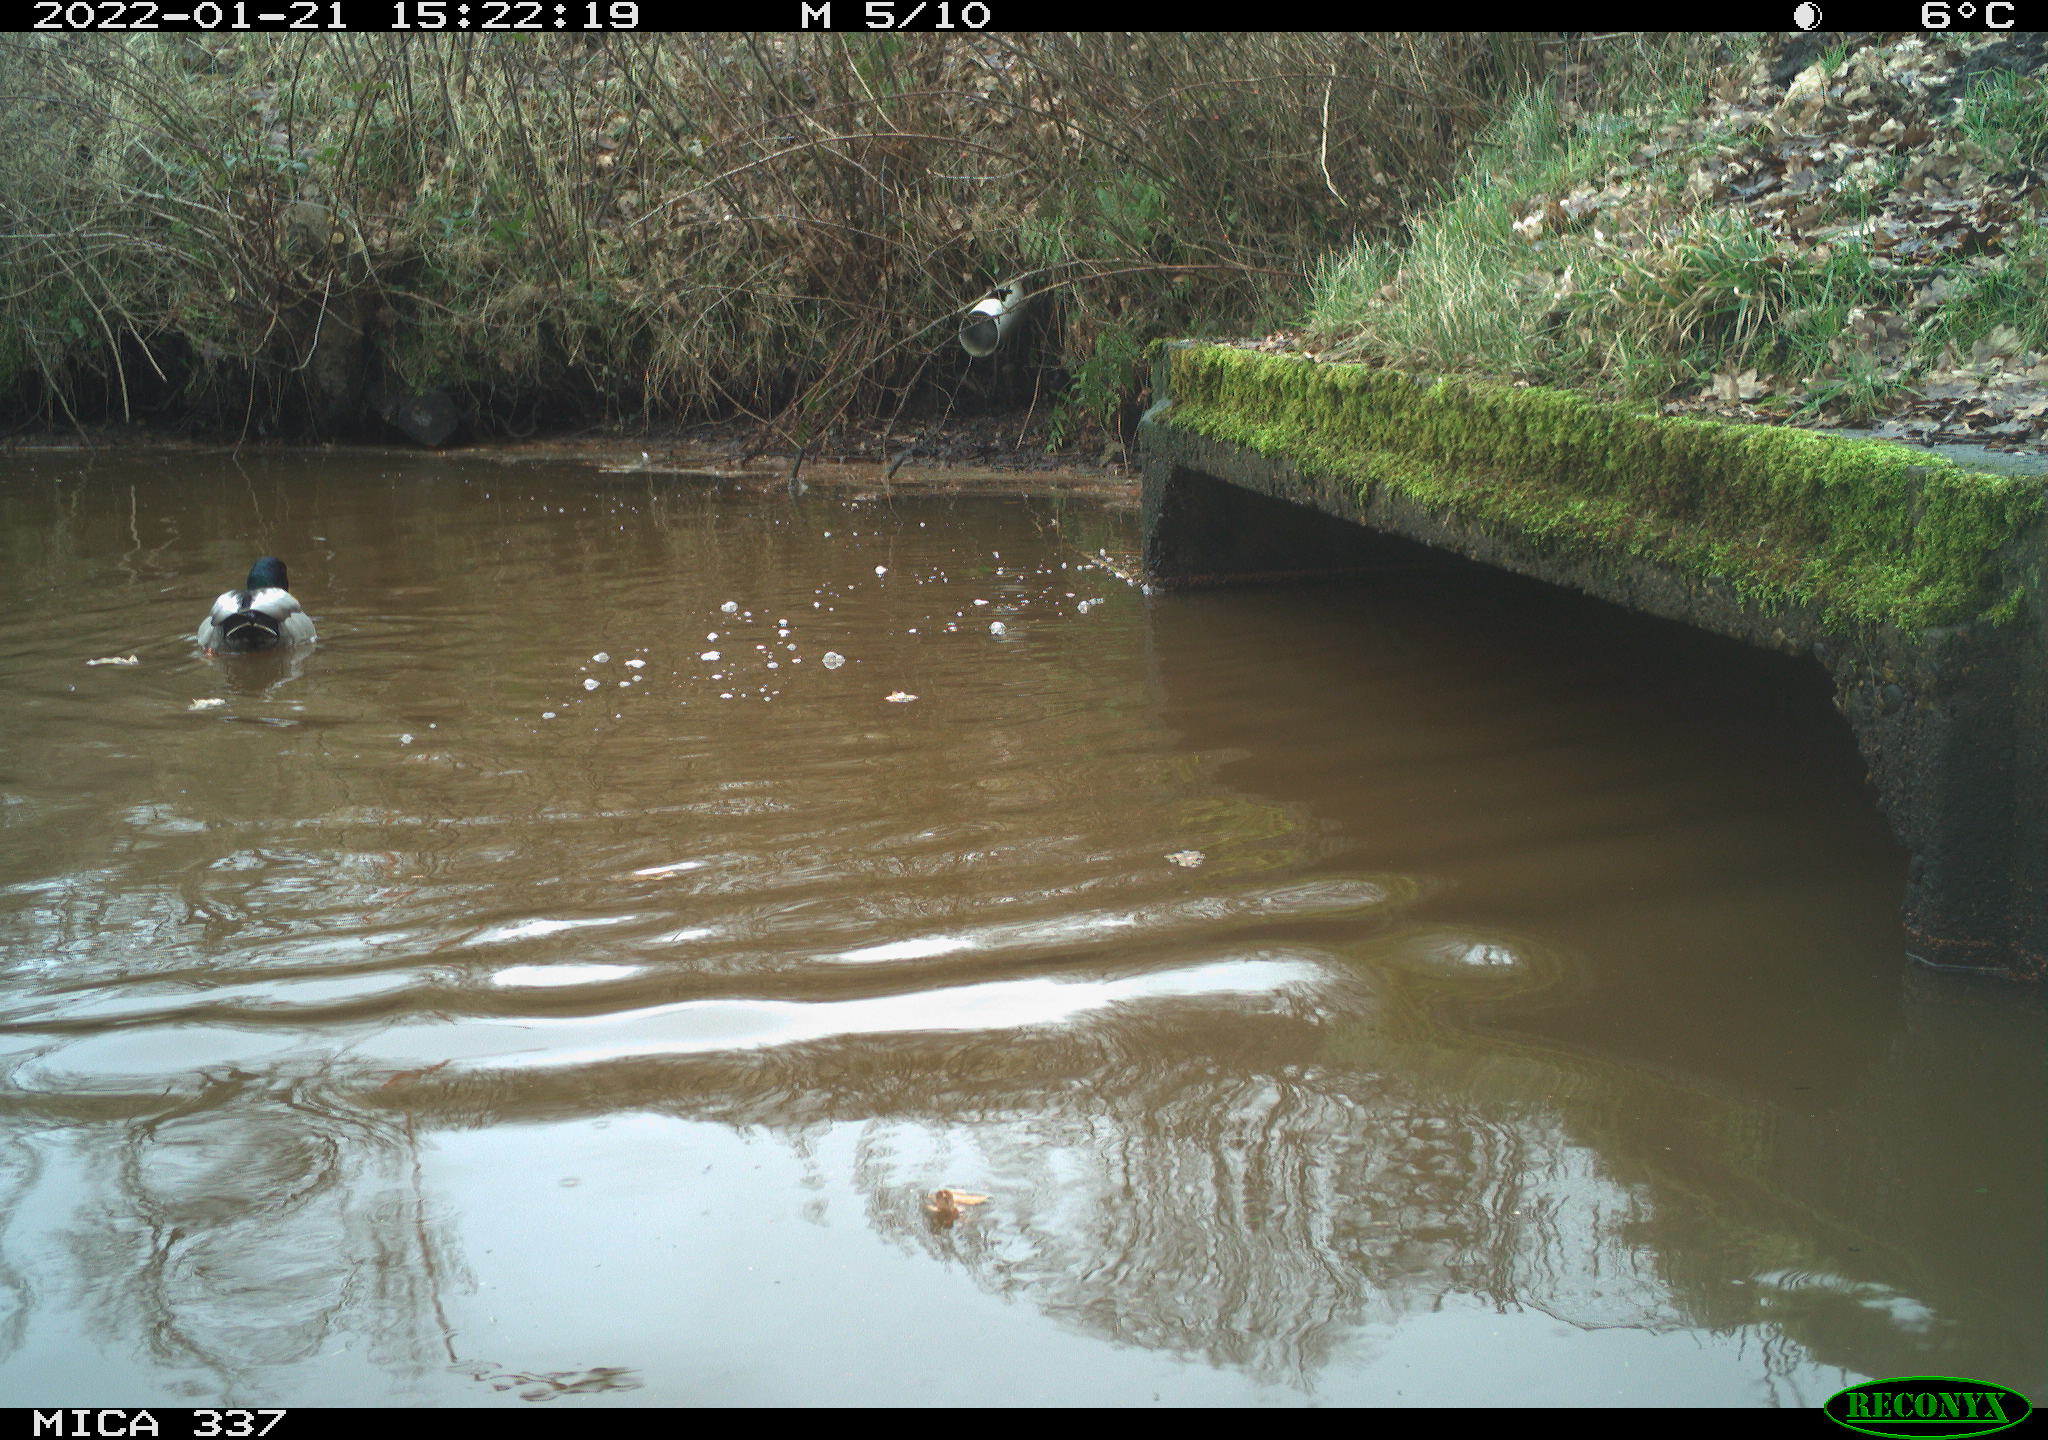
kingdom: Animalia
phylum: Chordata
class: Aves
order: Anseriformes
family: Anatidae
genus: Anas
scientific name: Anas platyrhynchos
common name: Mallard
